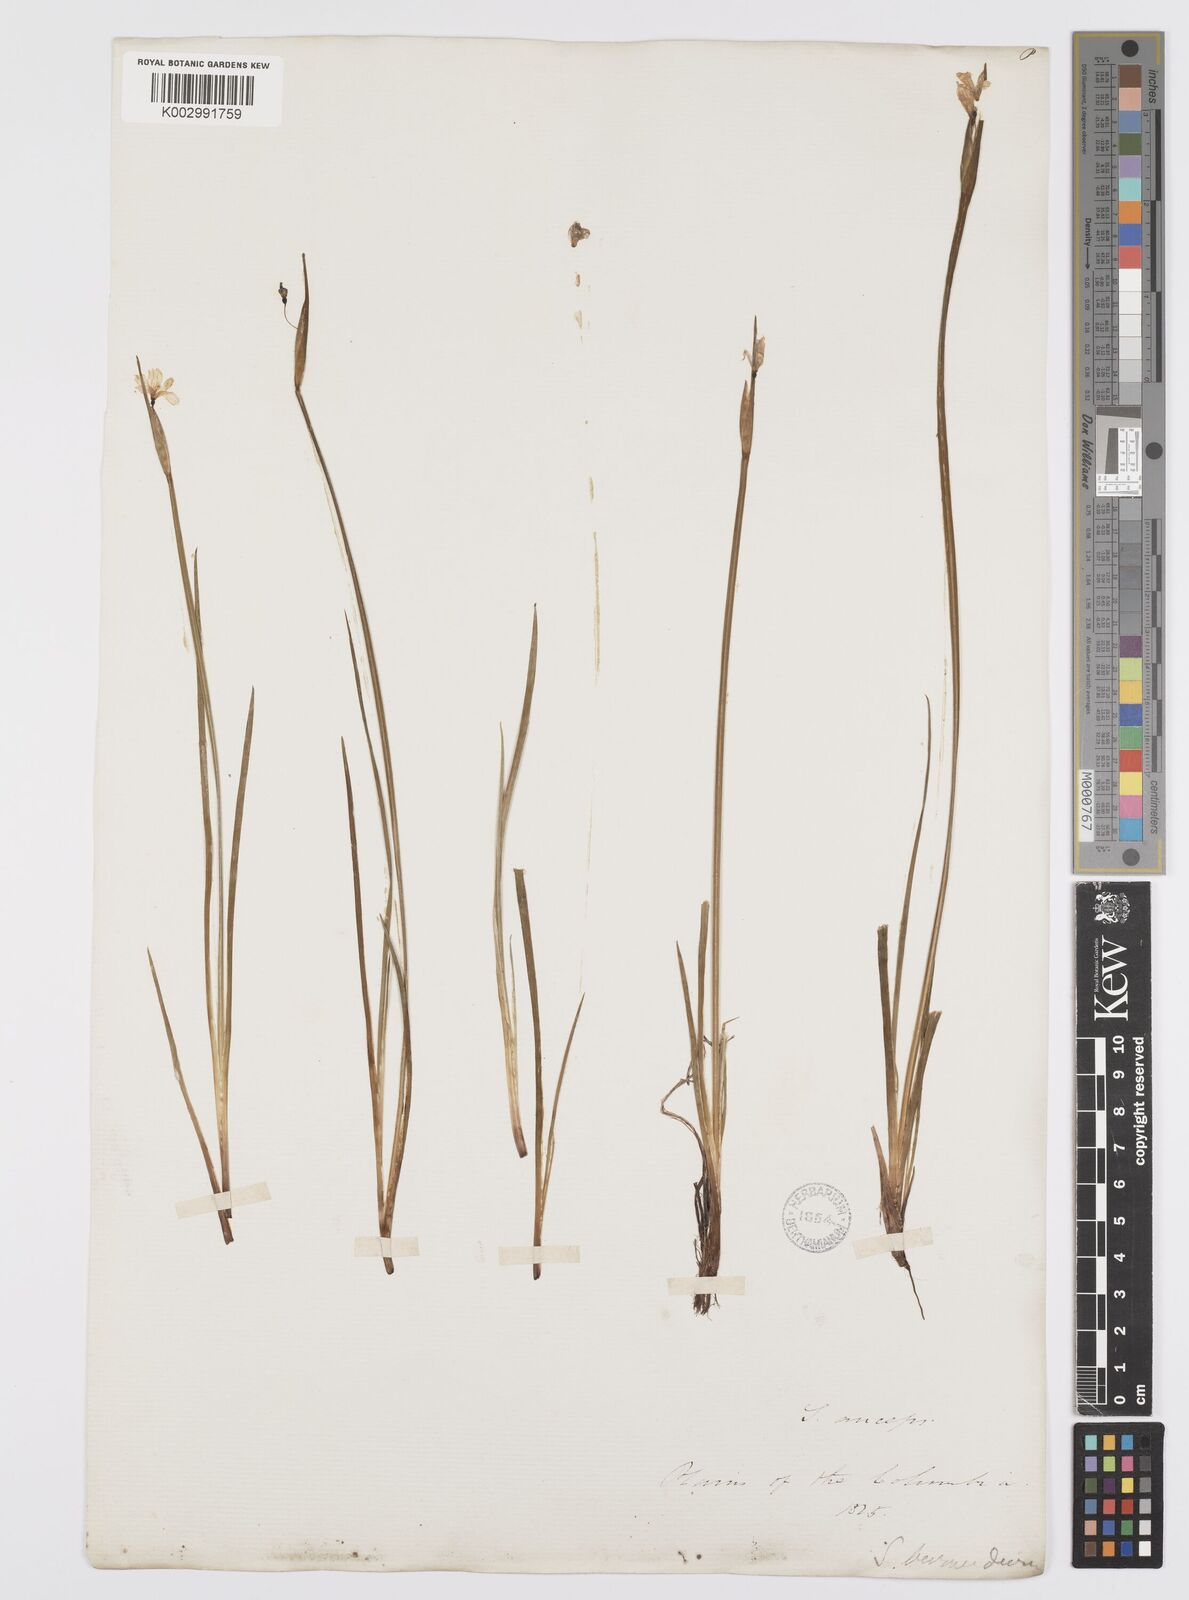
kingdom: Plantae
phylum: Tracheophyta
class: Liliopsida
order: Asparagales
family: Iridaceae
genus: Sisyrinchium
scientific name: Sisyrinchium bermudiana
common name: Blue-eyed-grass
